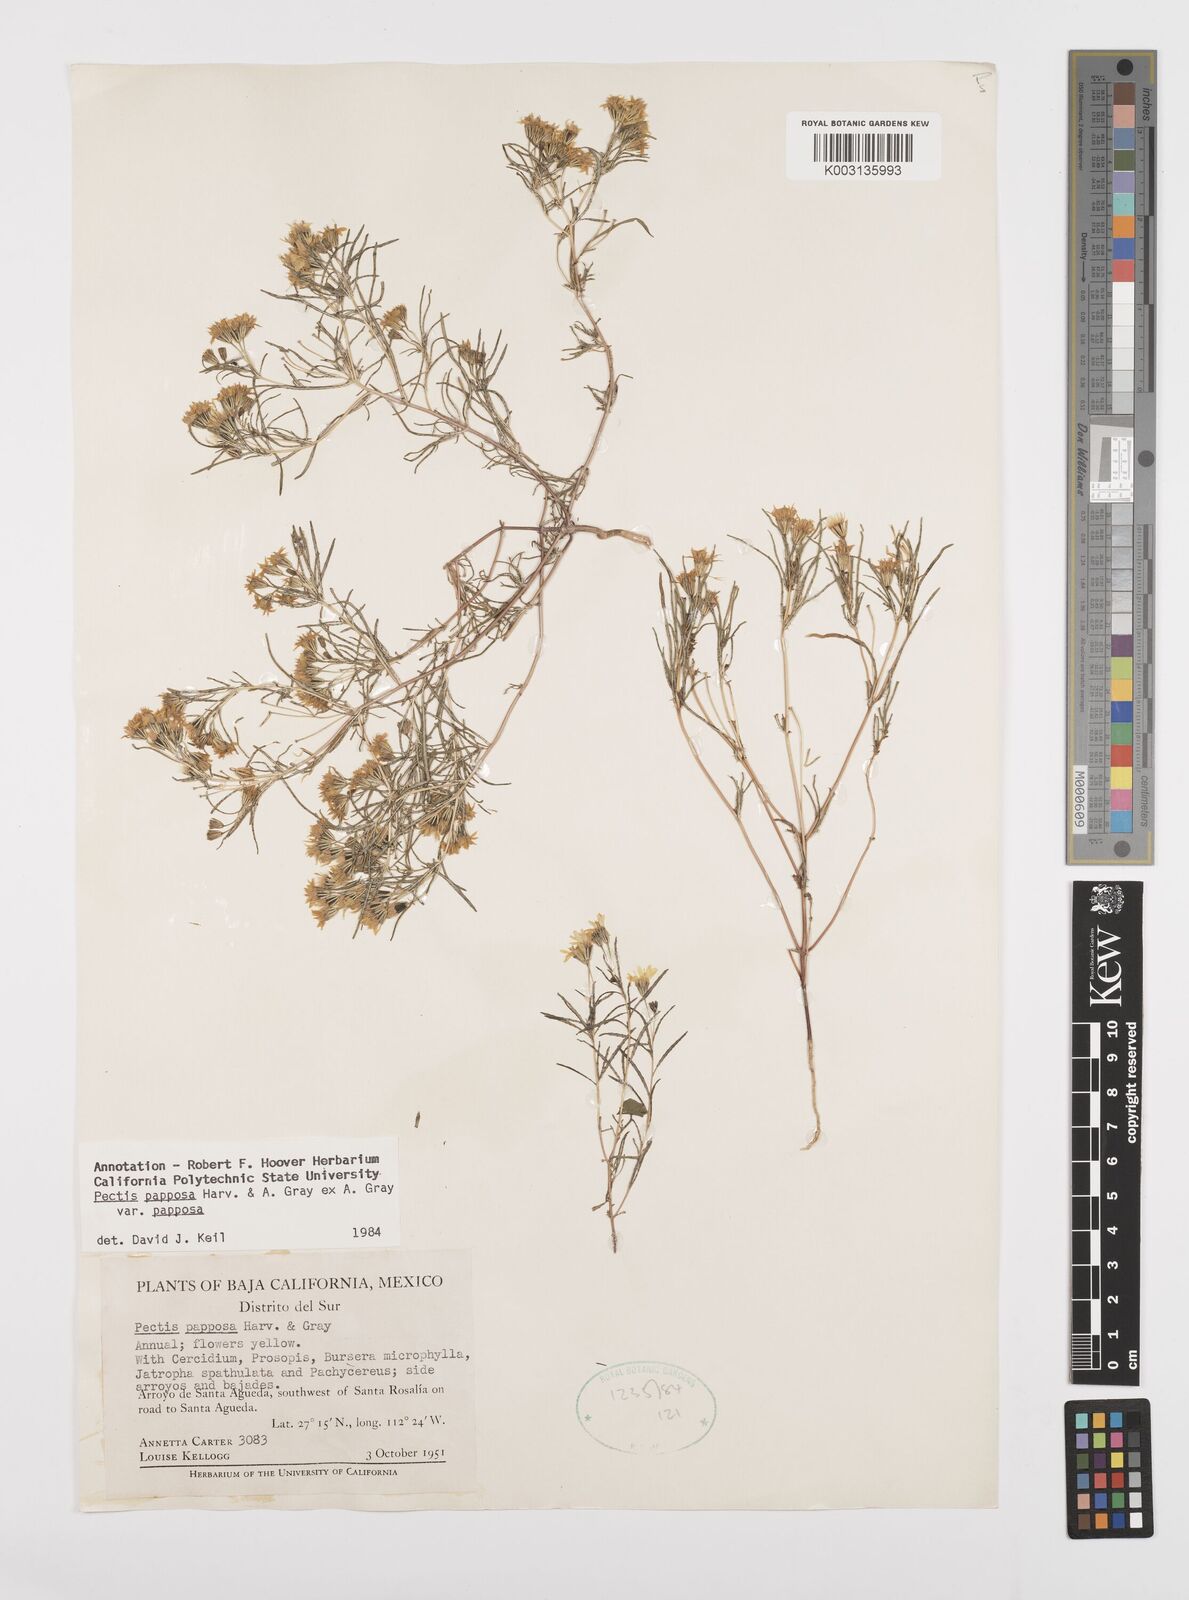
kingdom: Plantae
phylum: Tracheophyta
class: Magnoliopsida
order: Asterales
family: Asteraceae
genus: Pectis
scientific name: Pectis papposa
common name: Many-bristle chinchweed
